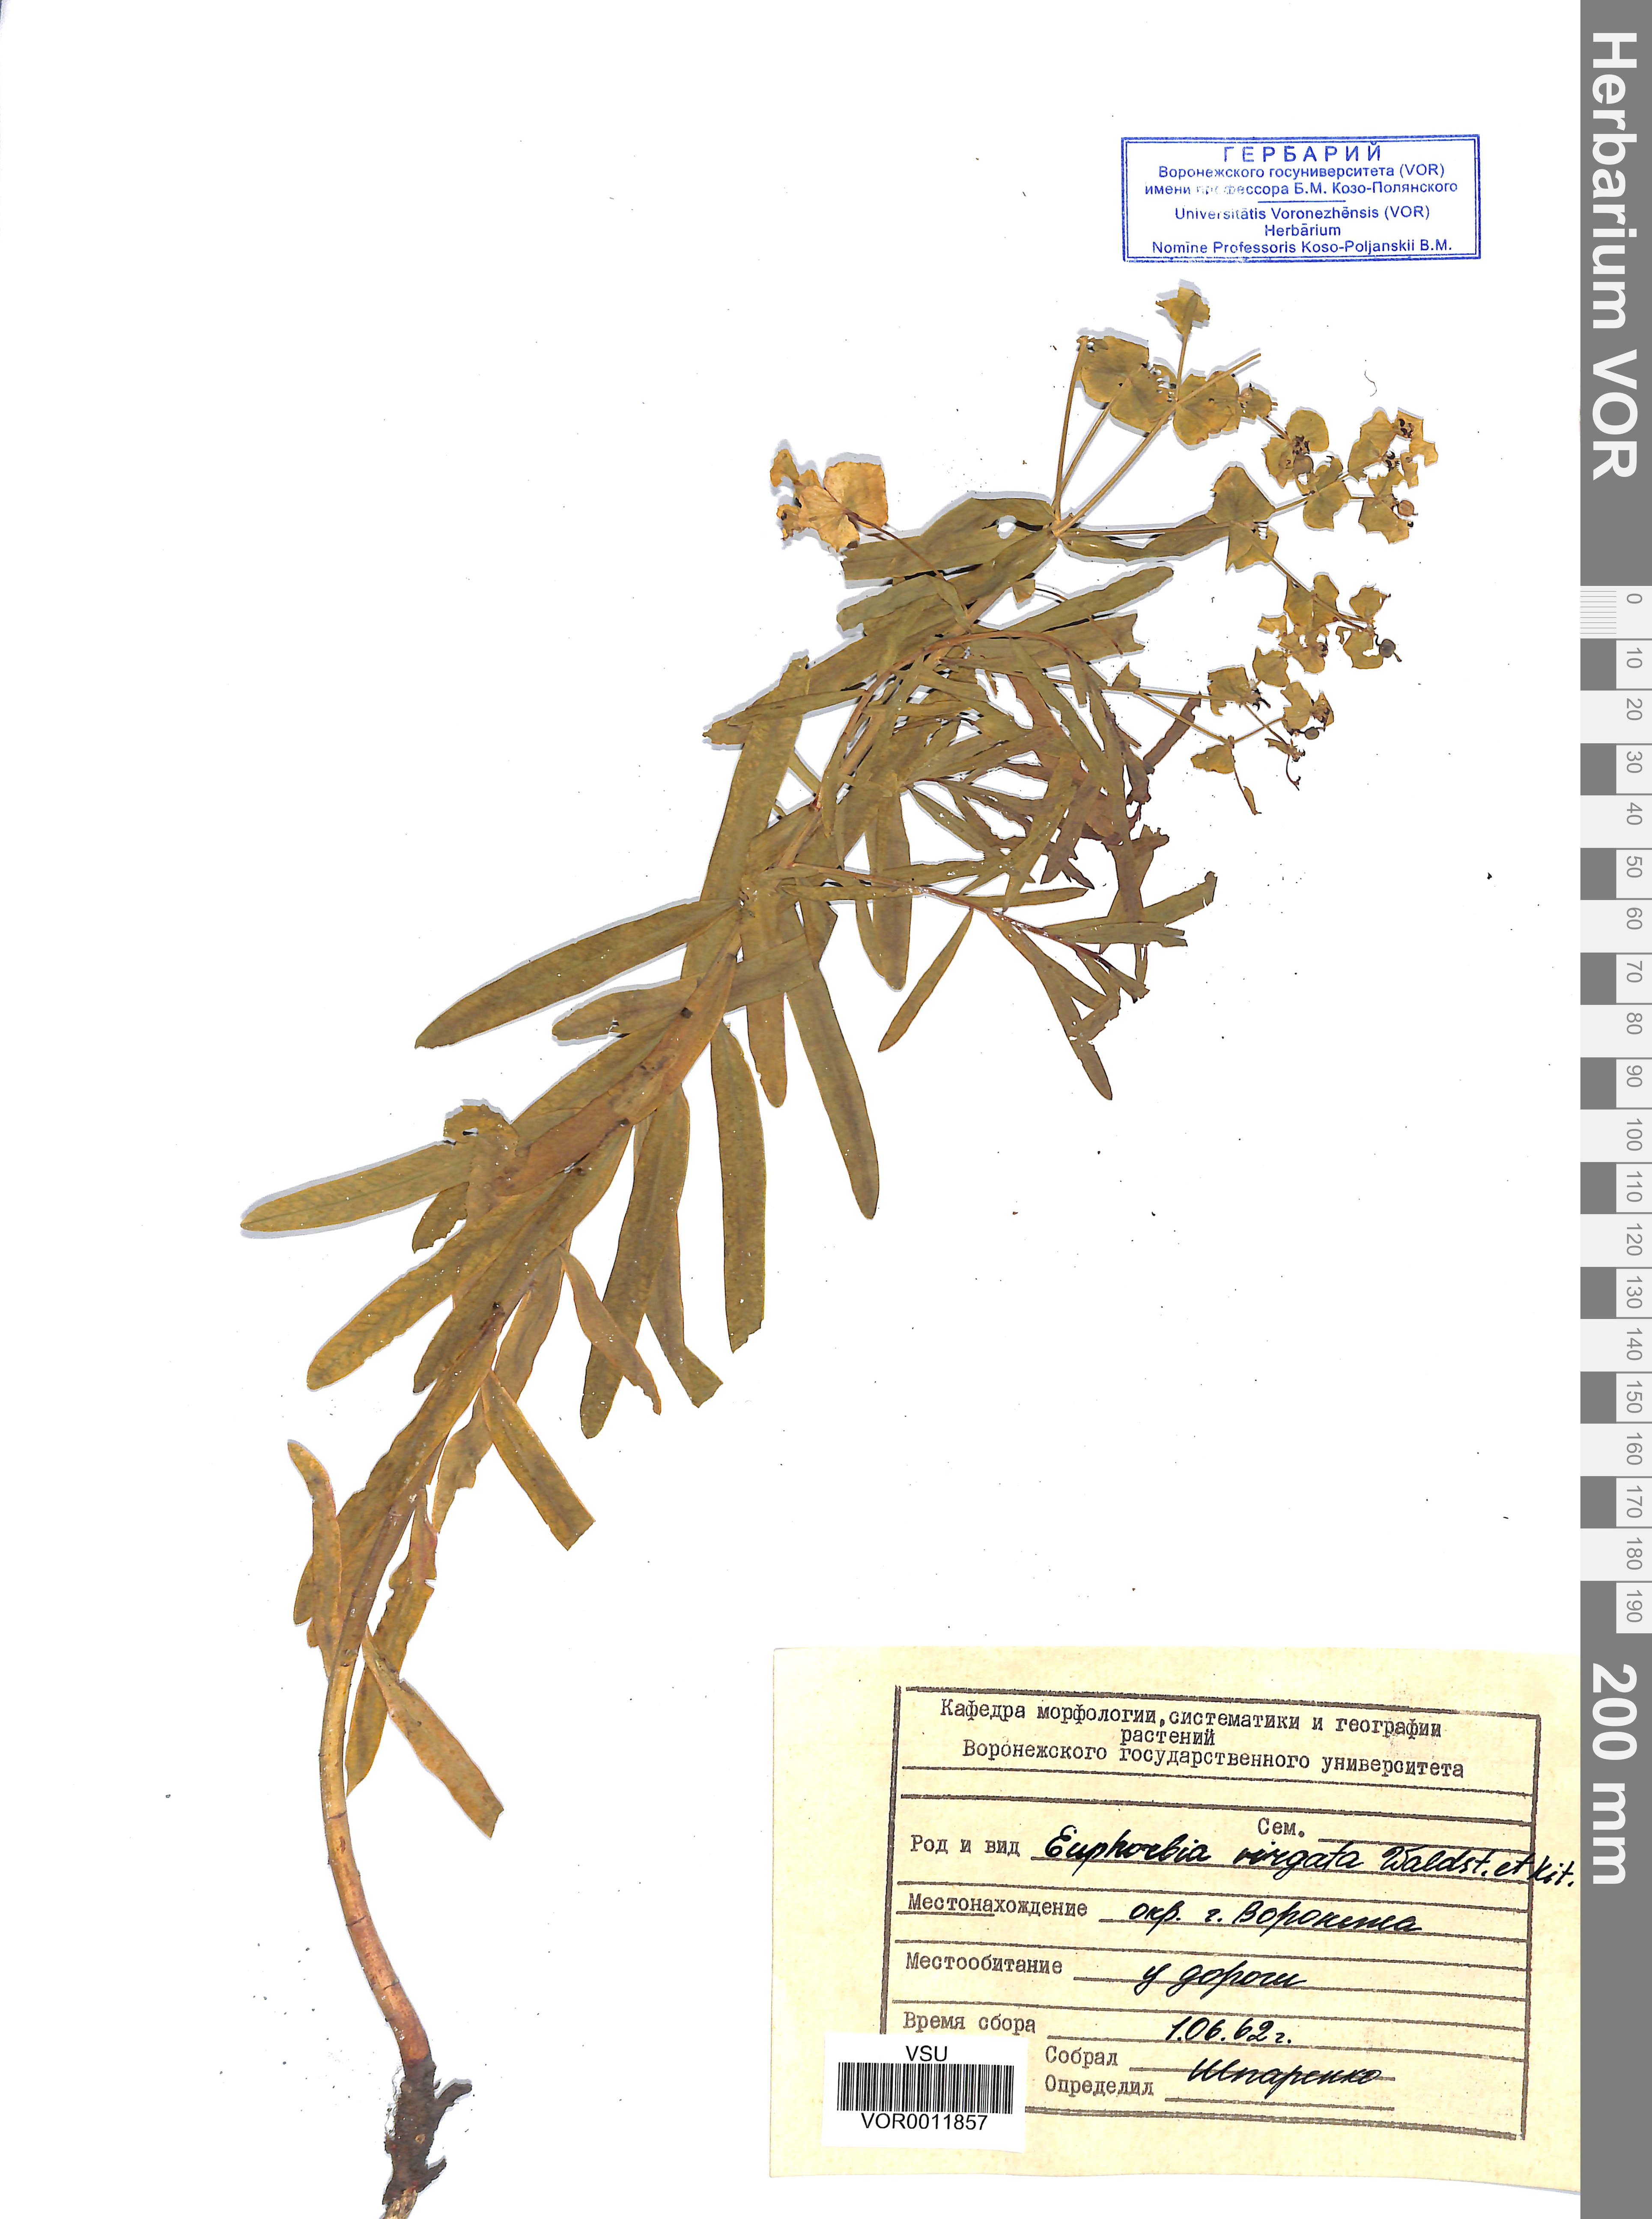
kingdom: Plantae
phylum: Tracheophyta
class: Magnoliopsida
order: Malpighiales
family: Euphorbiaceae
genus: Euphorbia
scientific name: Euphorbia virgata
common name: Leafy spurge
